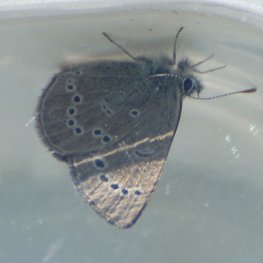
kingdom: Animalia
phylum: Arthropoda
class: Insecta
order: Lepidoptera
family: Lycaenidae
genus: Glaucopsyche
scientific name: Glaucopsyche lygdamus
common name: Silvery Blue
